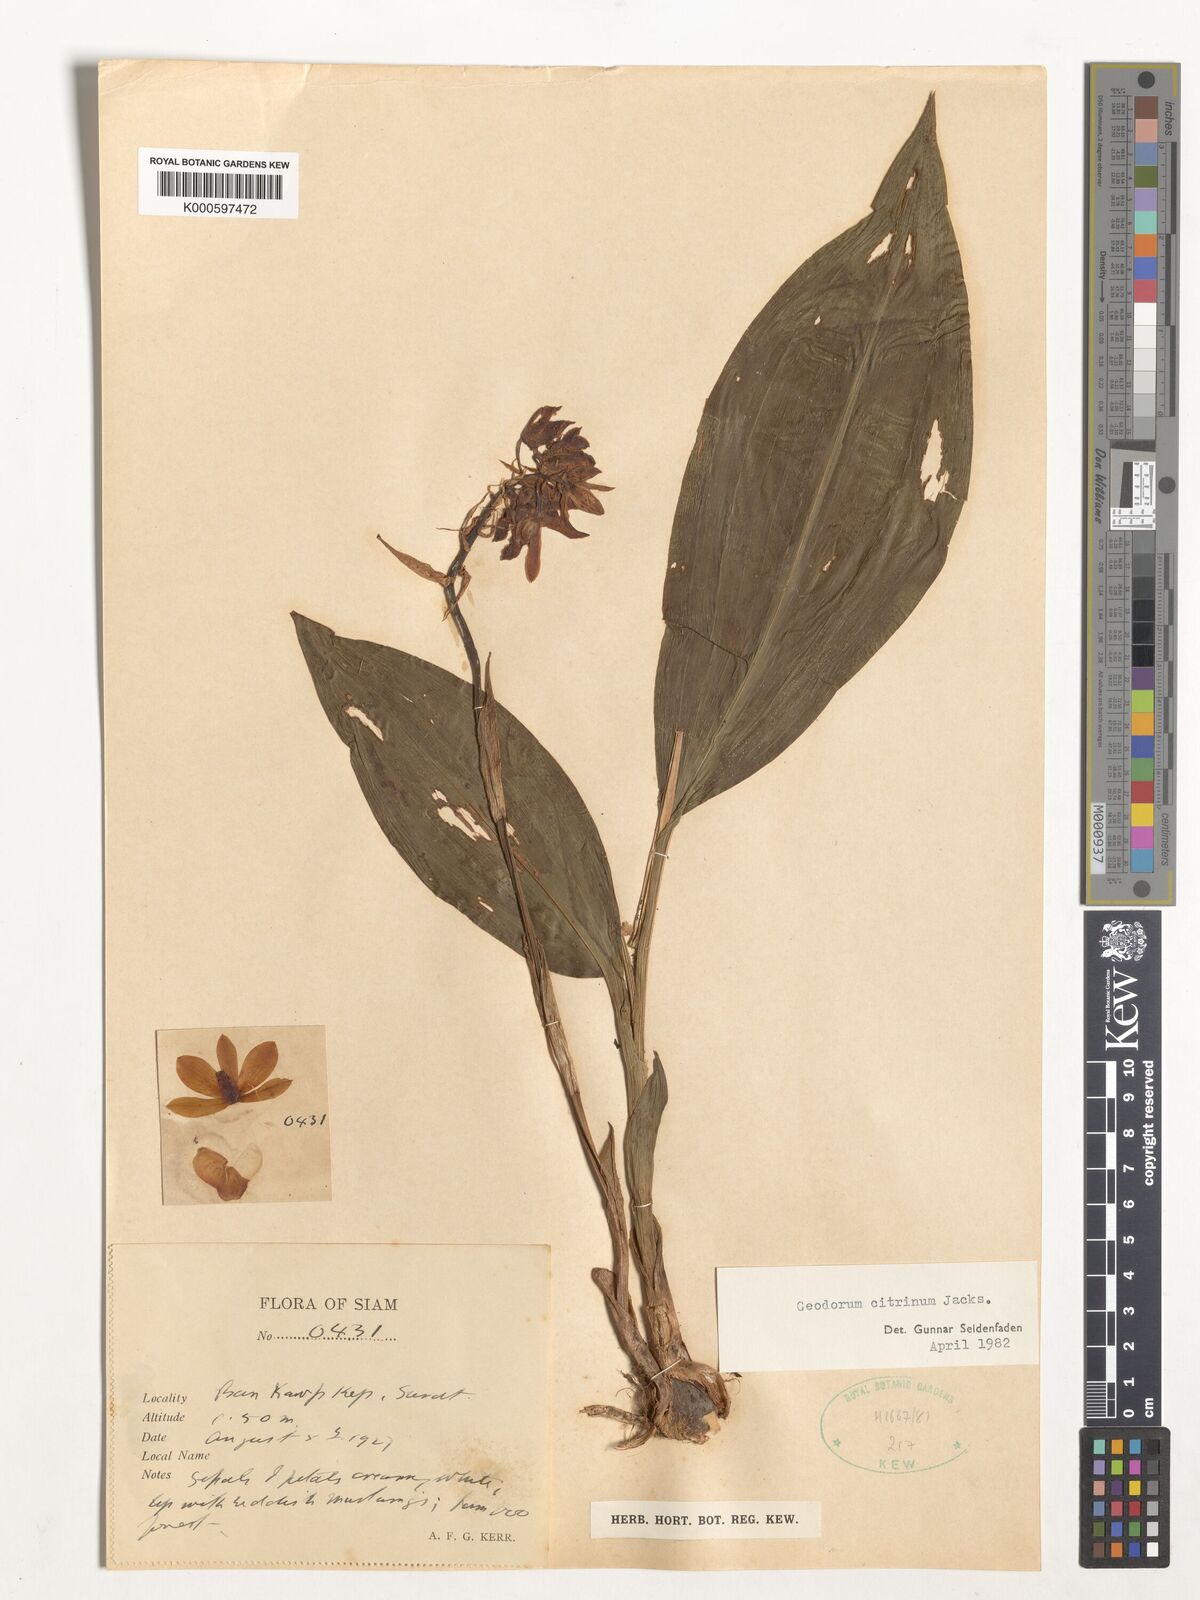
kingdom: Plantae
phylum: Tracheophyta
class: Liliopsida
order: Asparagales
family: Orchidaceae
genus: Geodorum
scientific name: Geodorum
